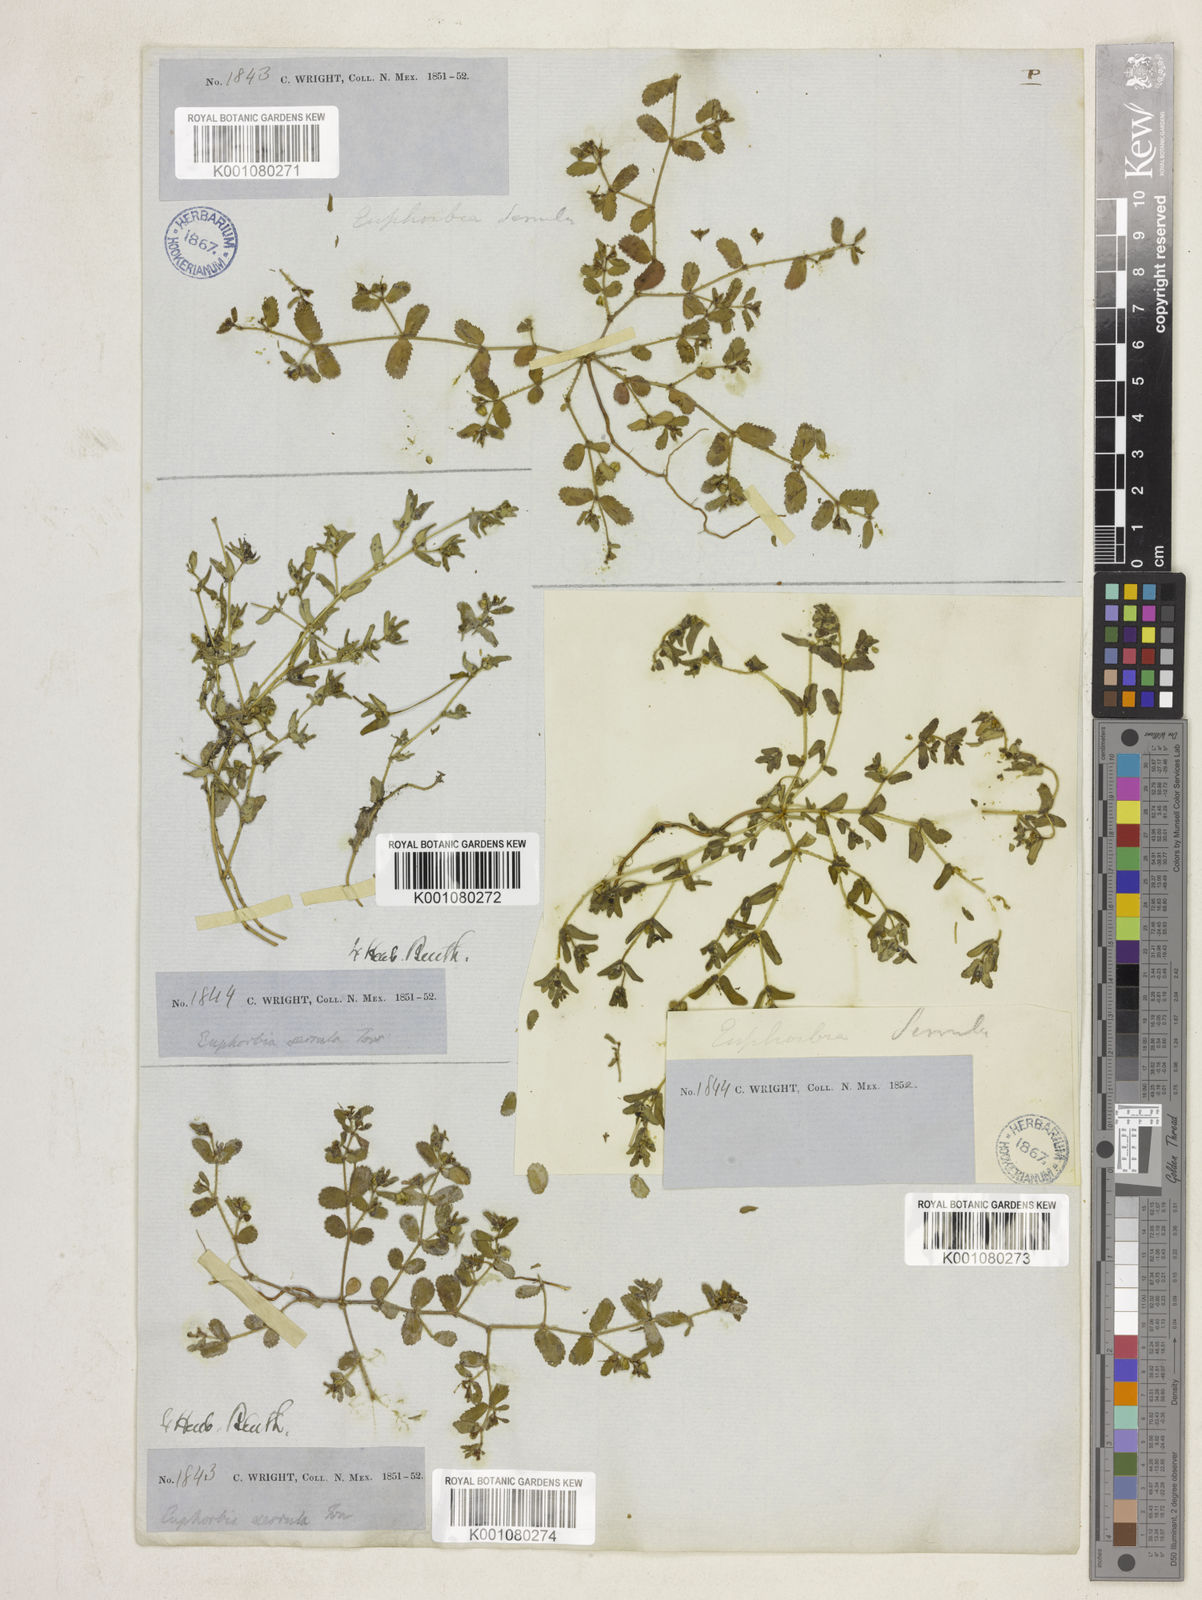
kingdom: Plantae
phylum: Tracheophyta
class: Magnoliopsida
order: Malpighiales
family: Euphorbiaceae
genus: Euphorbia
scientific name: Euphorbia serrula
